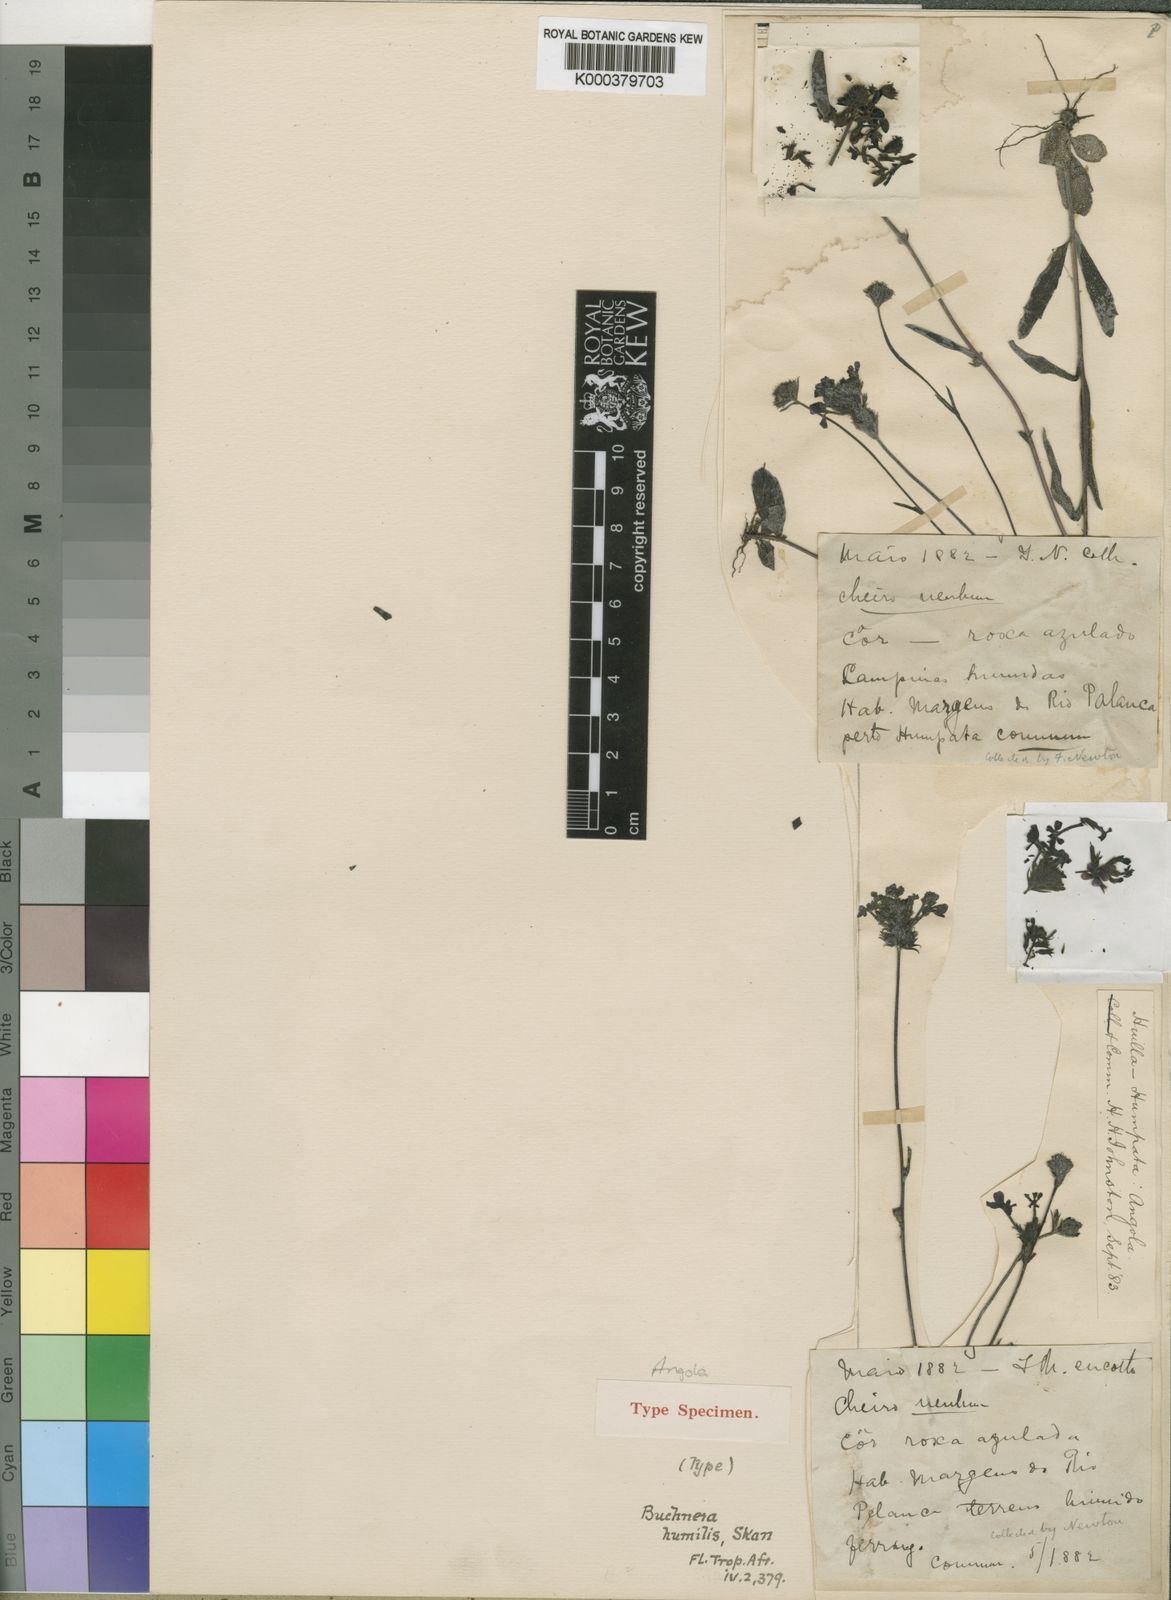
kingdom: Plantae
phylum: Tracheophyta
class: Magnoliopsida
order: Lamiales
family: Orobanchaceae
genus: Buchnera
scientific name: Buchnera humilis
